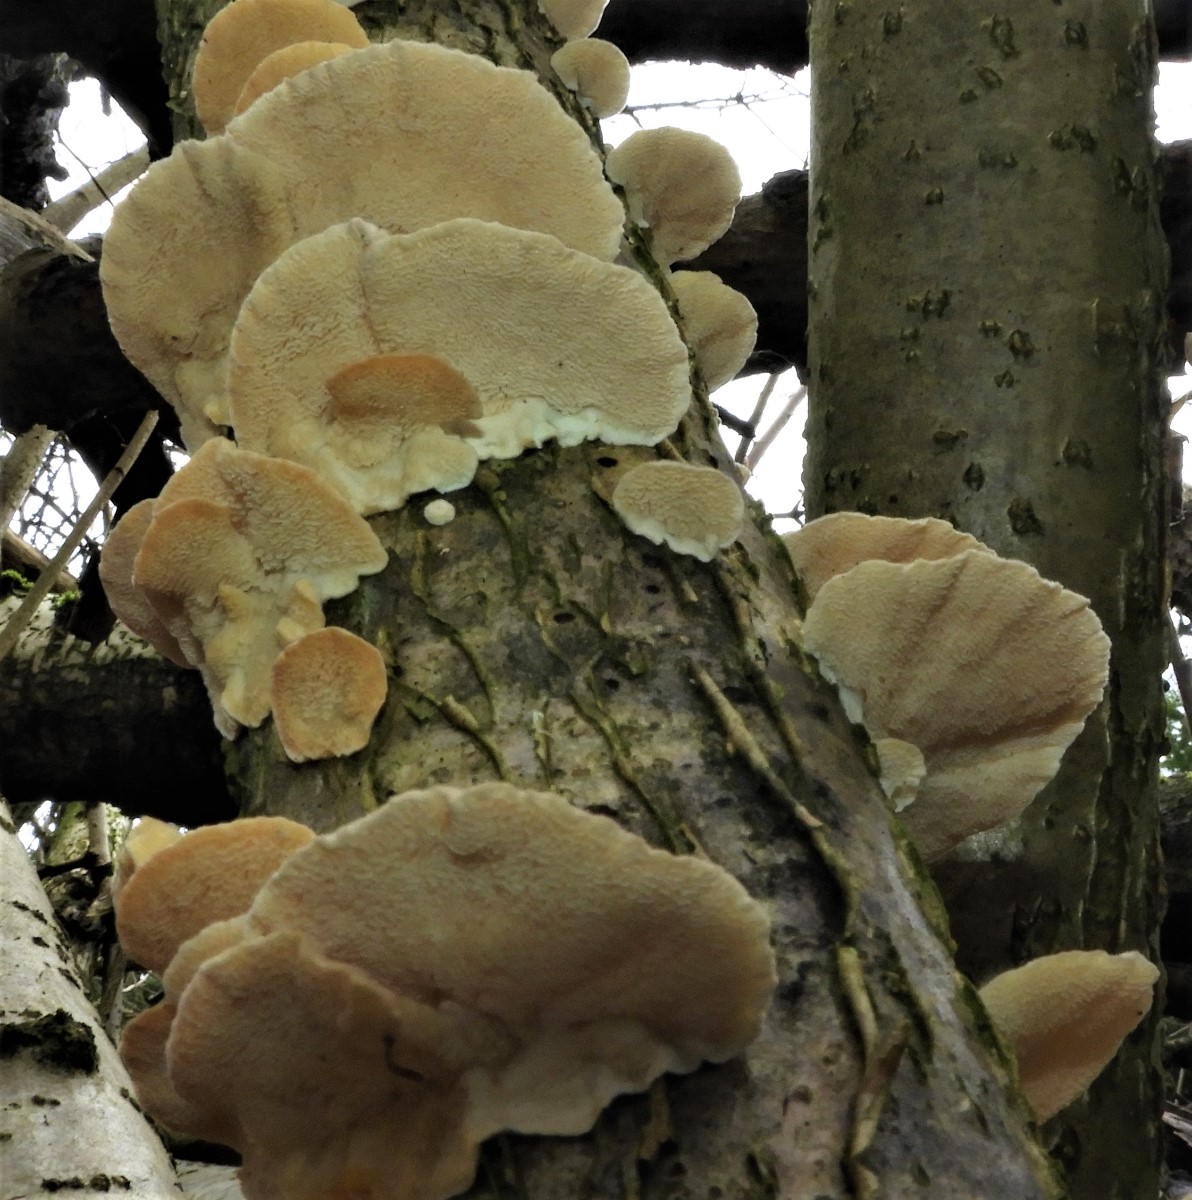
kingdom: Fungi
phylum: Basidiomycota
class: Agaricomycetes
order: Polyporales
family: Polyporaceae
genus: Trametes
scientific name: Trametes versicolor
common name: broget læderporesvamp
